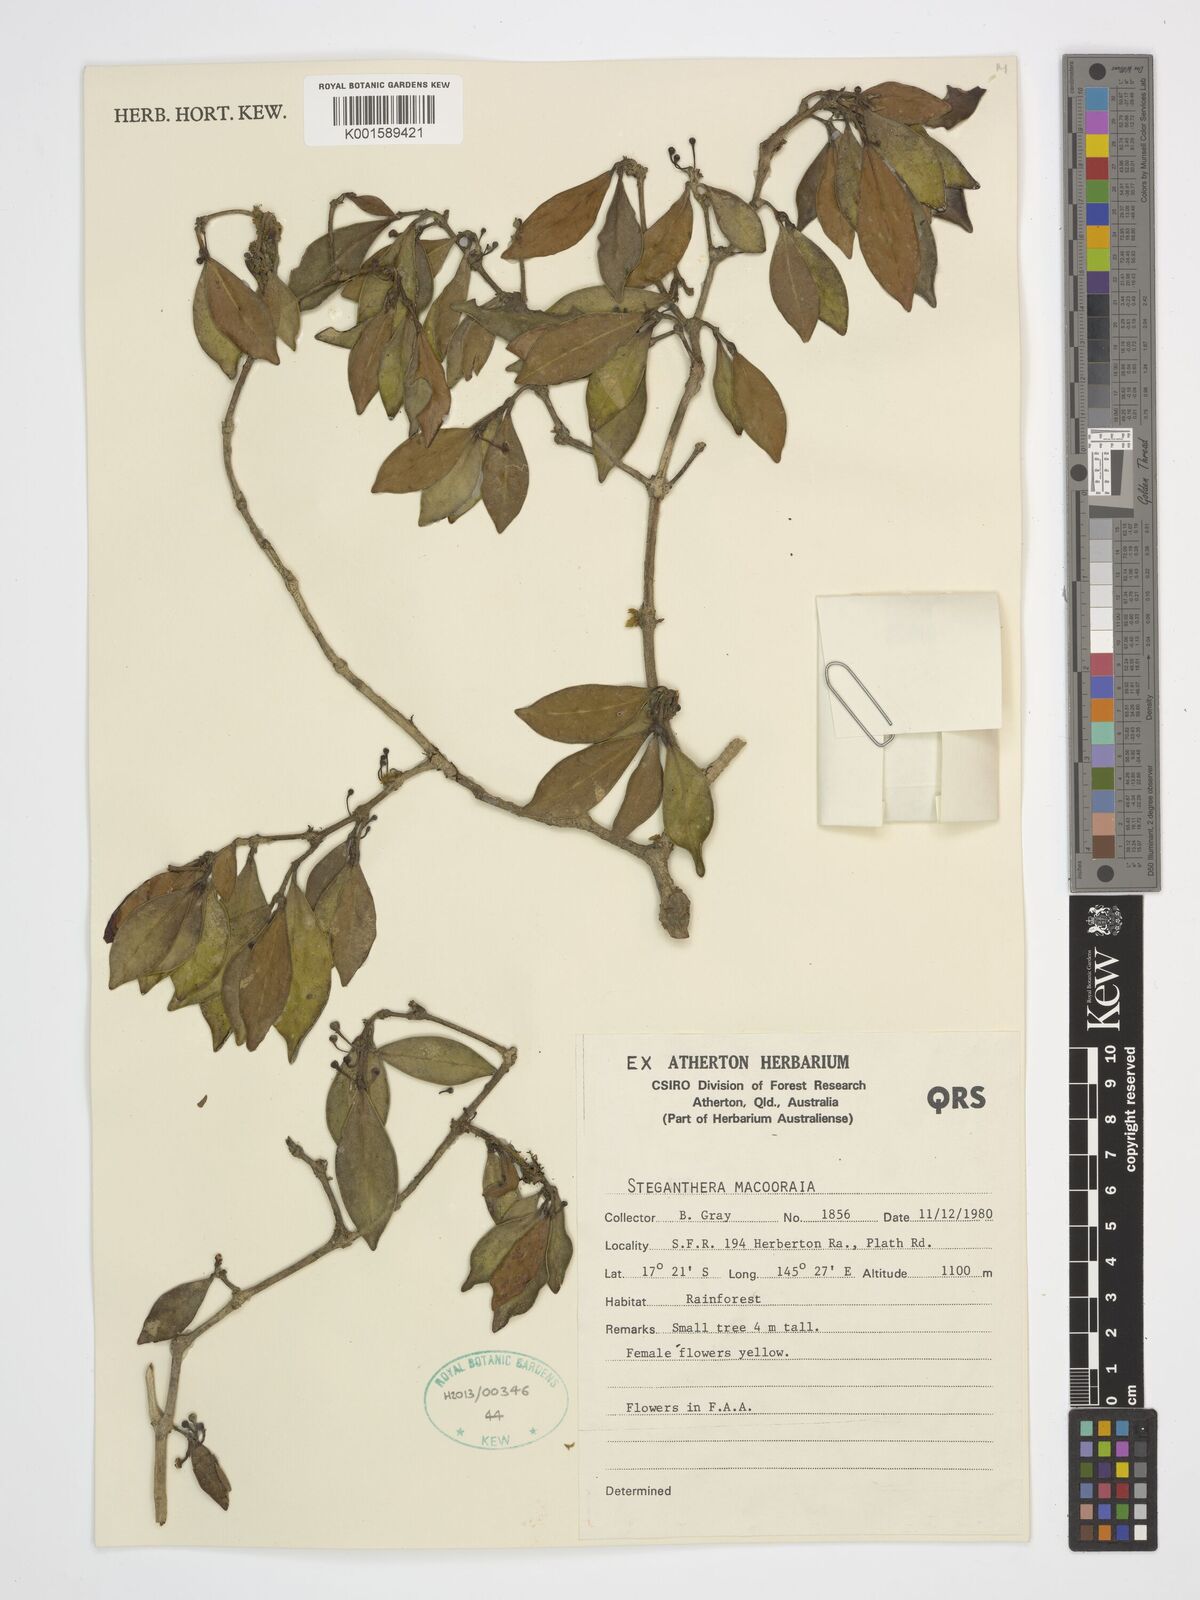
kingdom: Plantae
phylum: Tracheophyta
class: Magnoliopsida
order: Laurales
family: Monimiaceae
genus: Steganthera
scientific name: Steganthera macooraia
